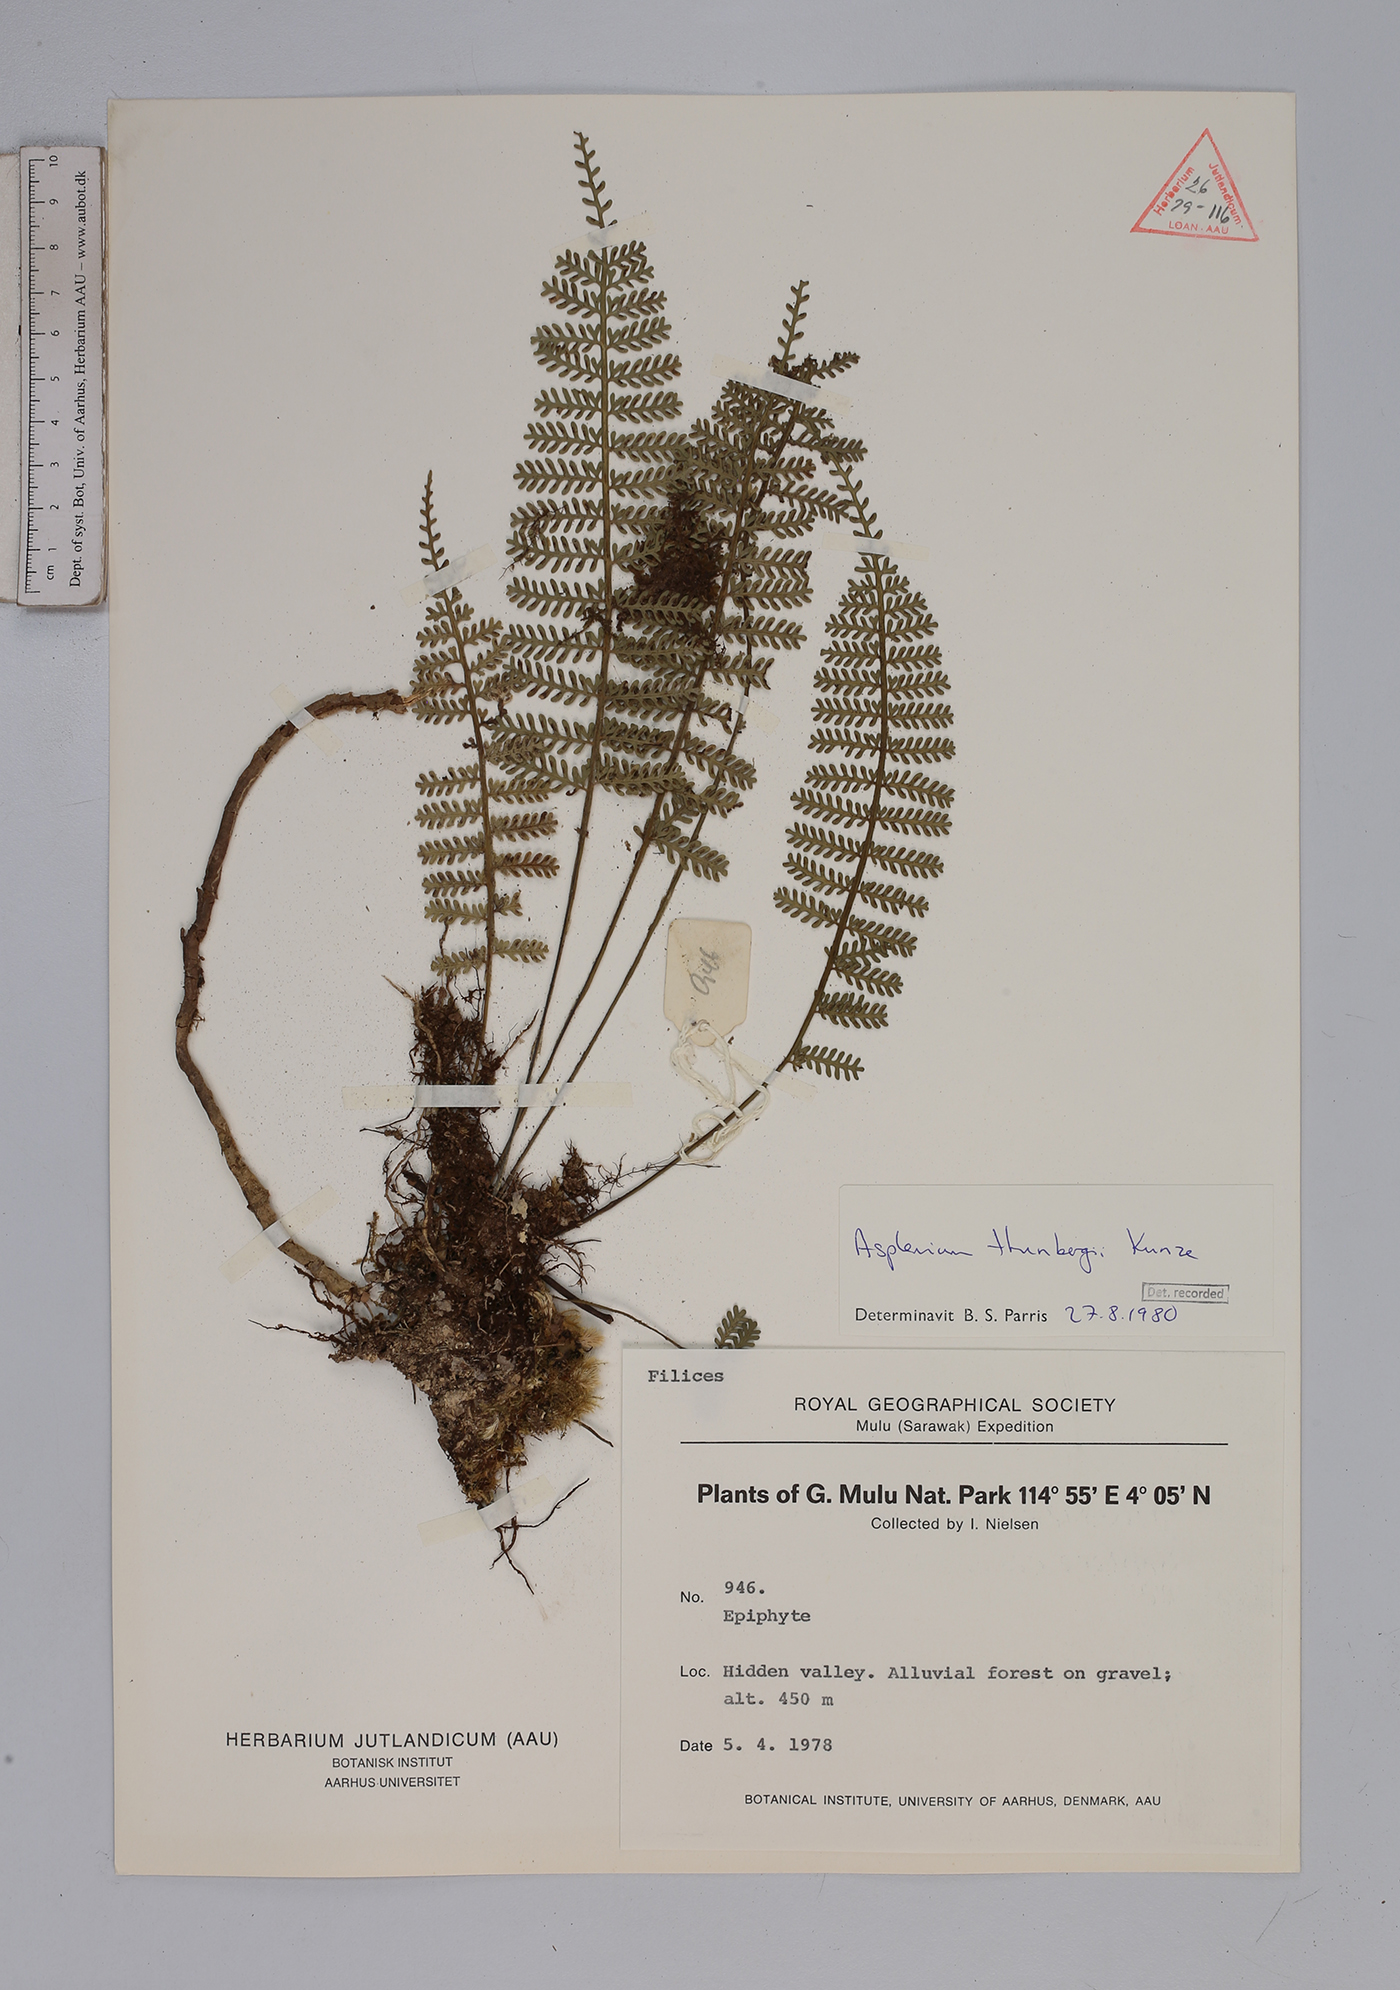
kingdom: Plantae
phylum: Tracheophyta
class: Polypodiopsida
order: Polypodiales
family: Aspleniaceae
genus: Asplenium
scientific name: Asplenium thunbergii
